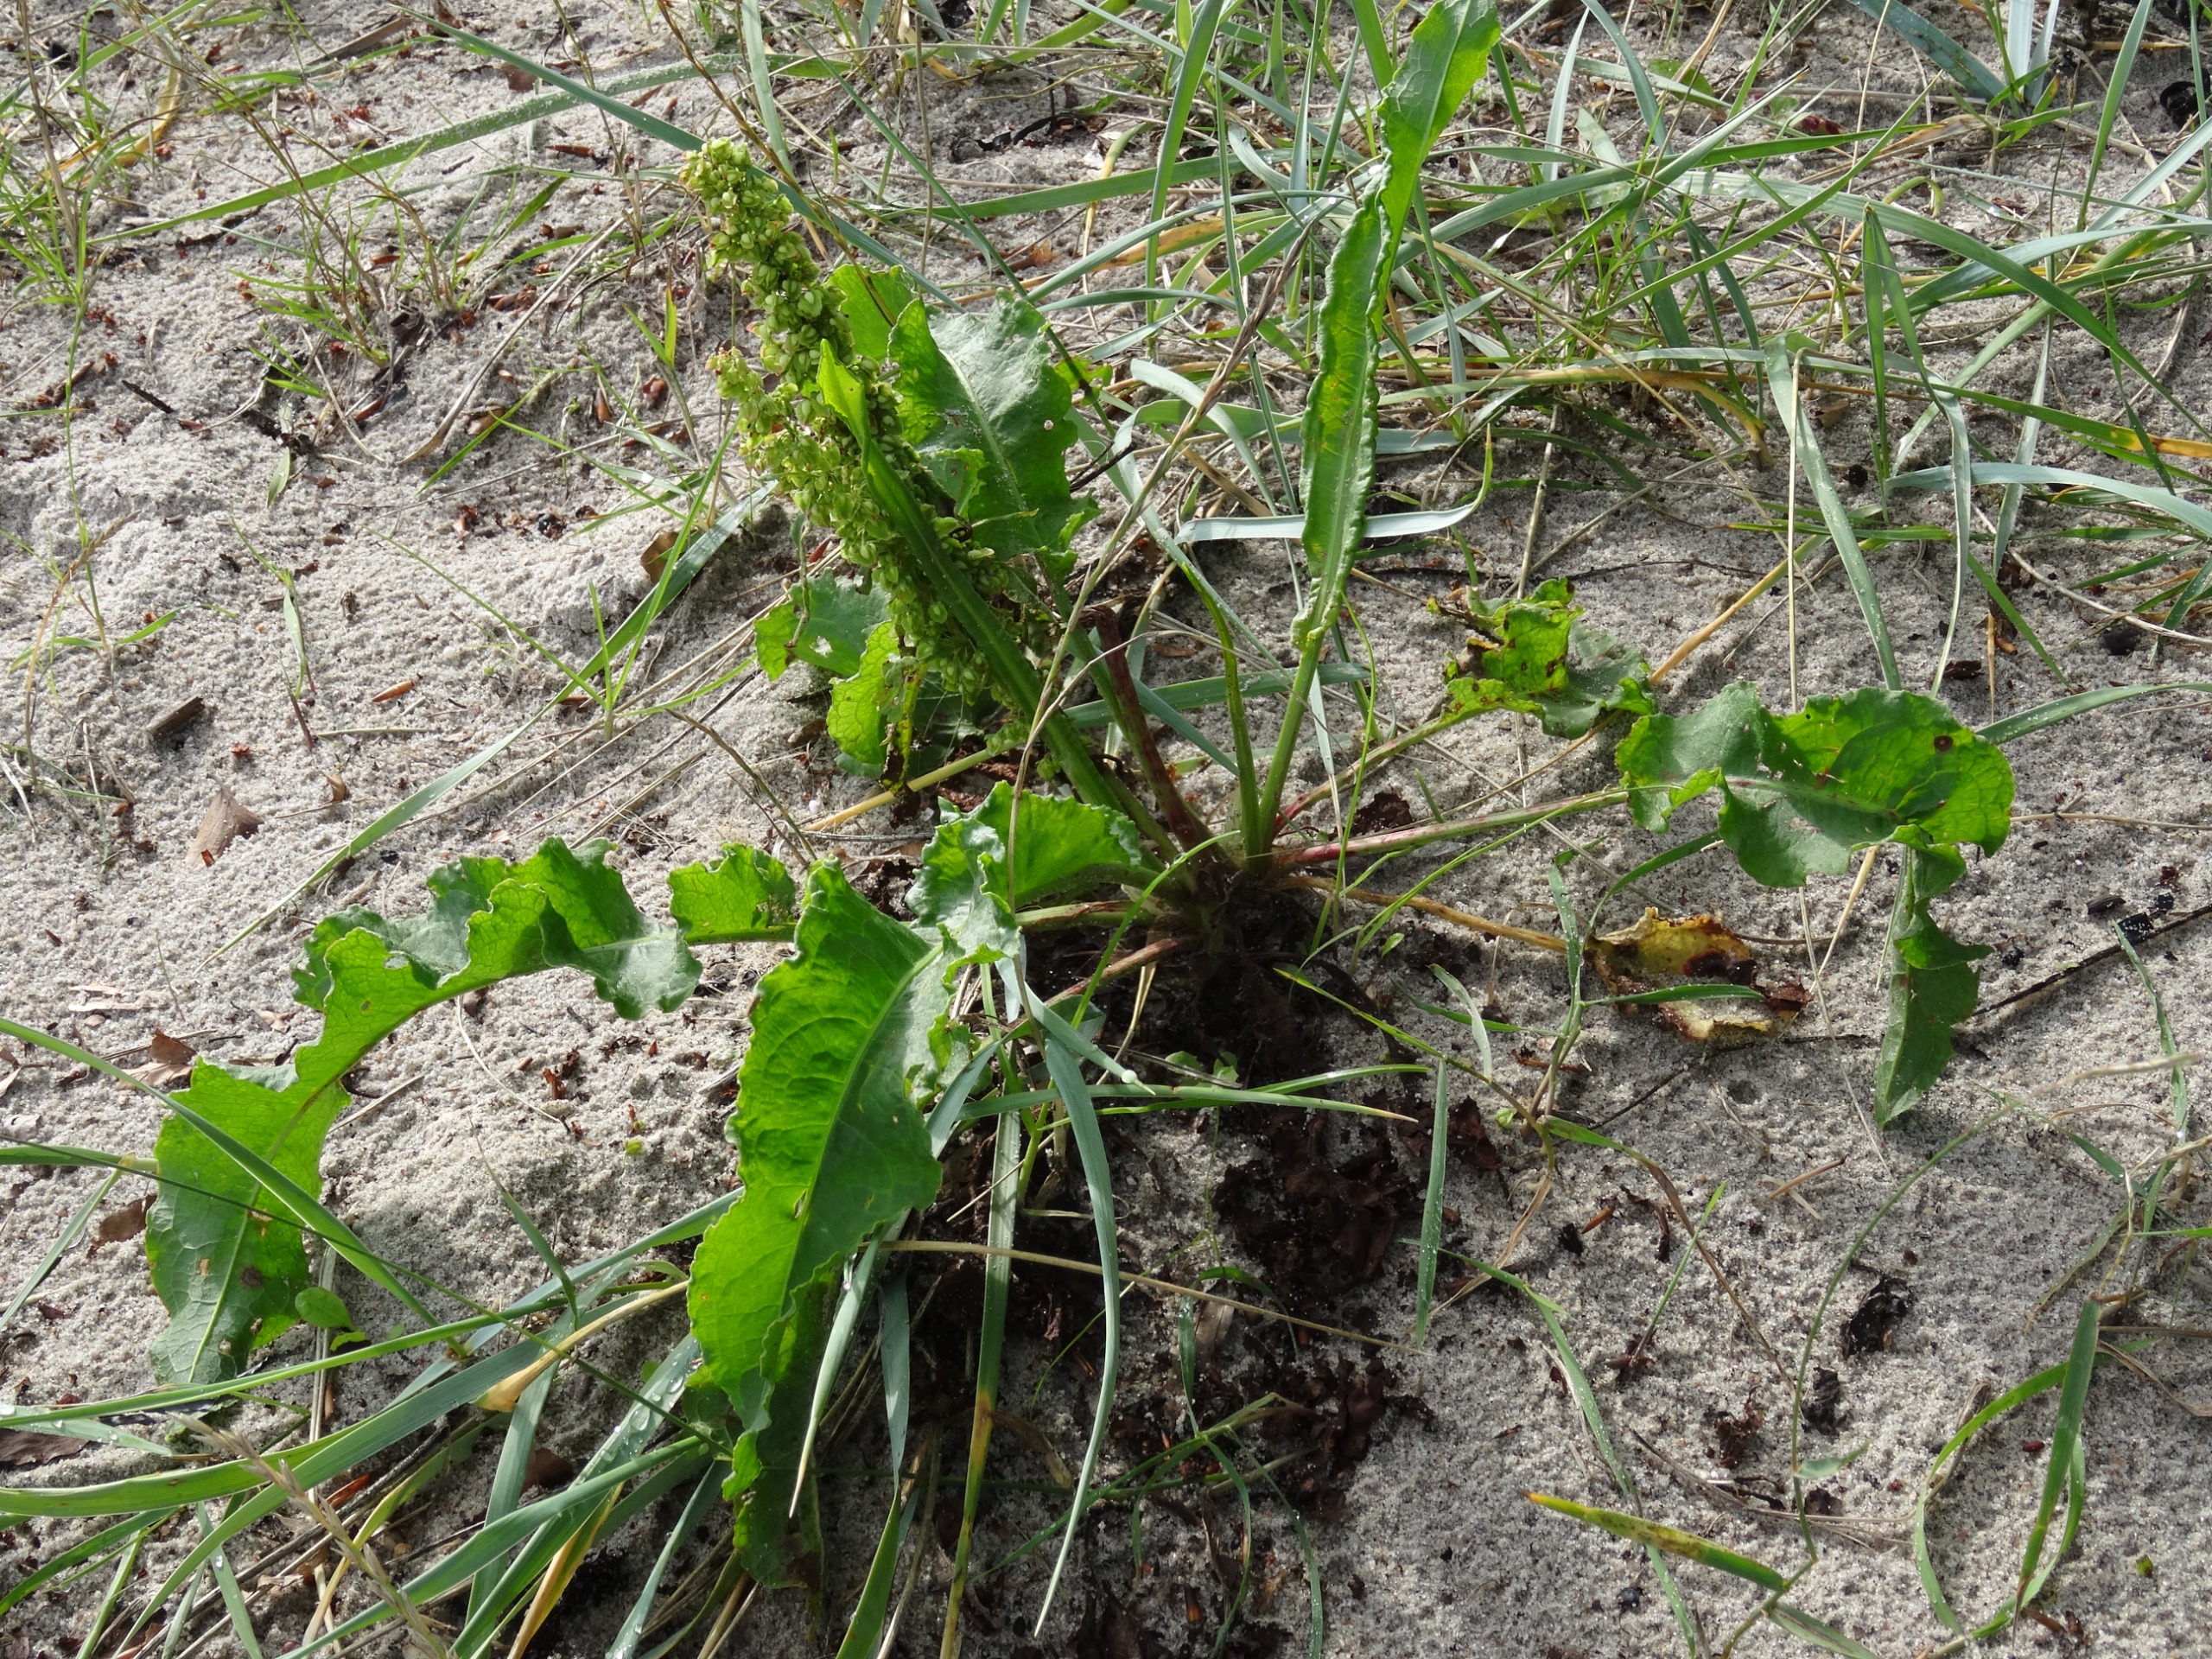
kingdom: Plantae
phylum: Tracheophyta
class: Magnoliopsida
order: Caryophyllales
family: Polygonaceae
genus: Rumex
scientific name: Rumex crispus
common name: Kruset skræppe
